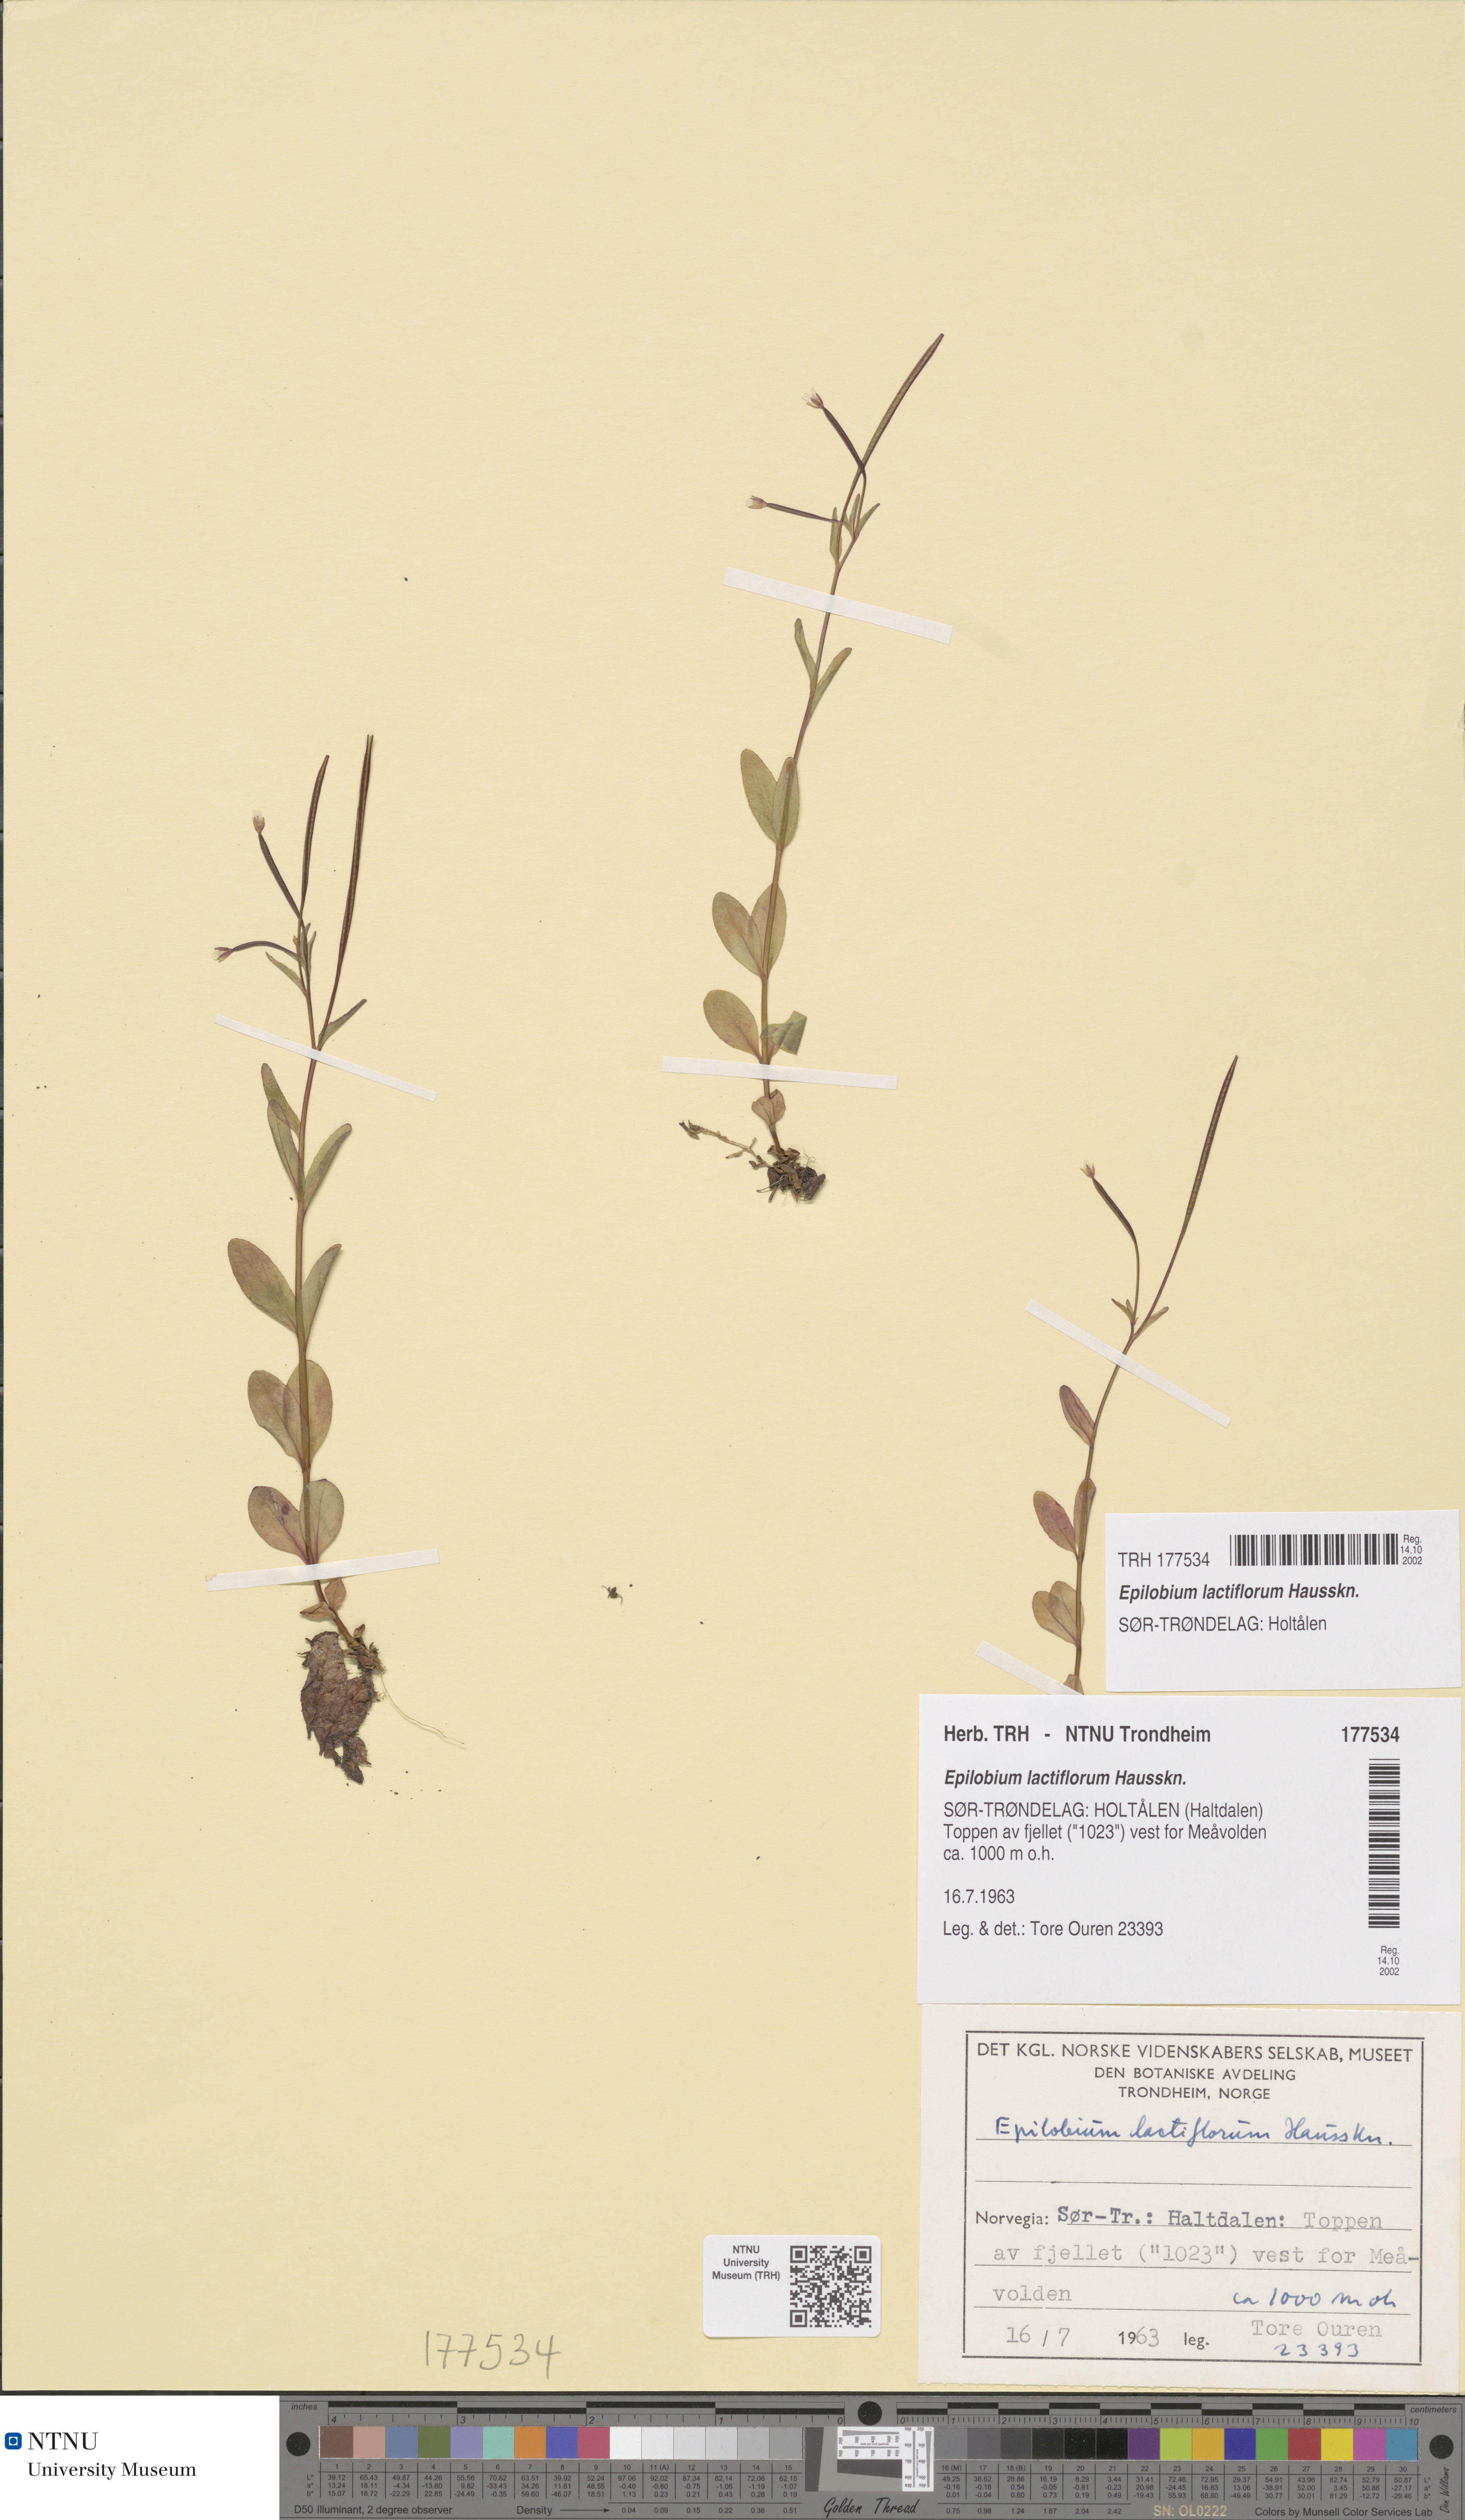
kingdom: Plantae
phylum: Tracheophyta
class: Magnoliopsida
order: Myrtales
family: Onagraceae
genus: Epilobium
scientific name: Epilobium lactiflorum
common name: Milkflower willowherb
